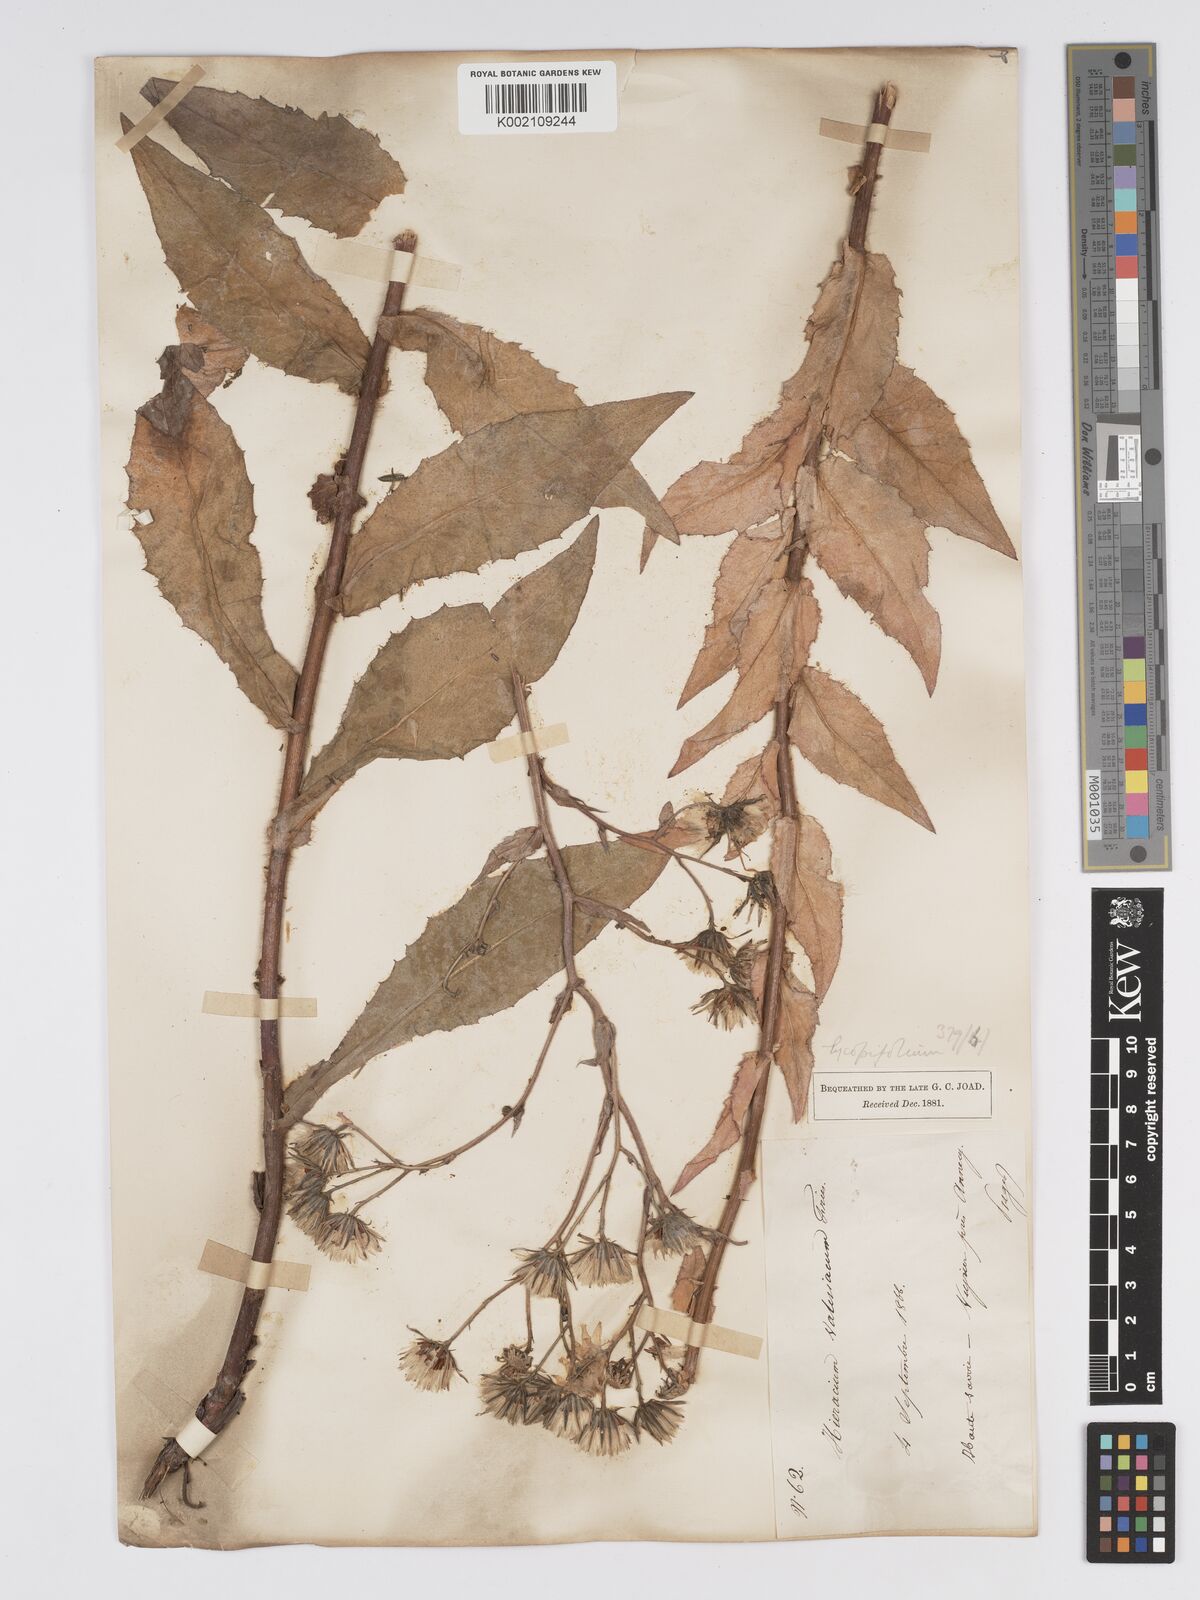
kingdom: Plantae
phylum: Tracheophyta
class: Magnoliopsida
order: Asterales
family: Asteraceae
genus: Hieracium
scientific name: Hieracium lycopifolium
